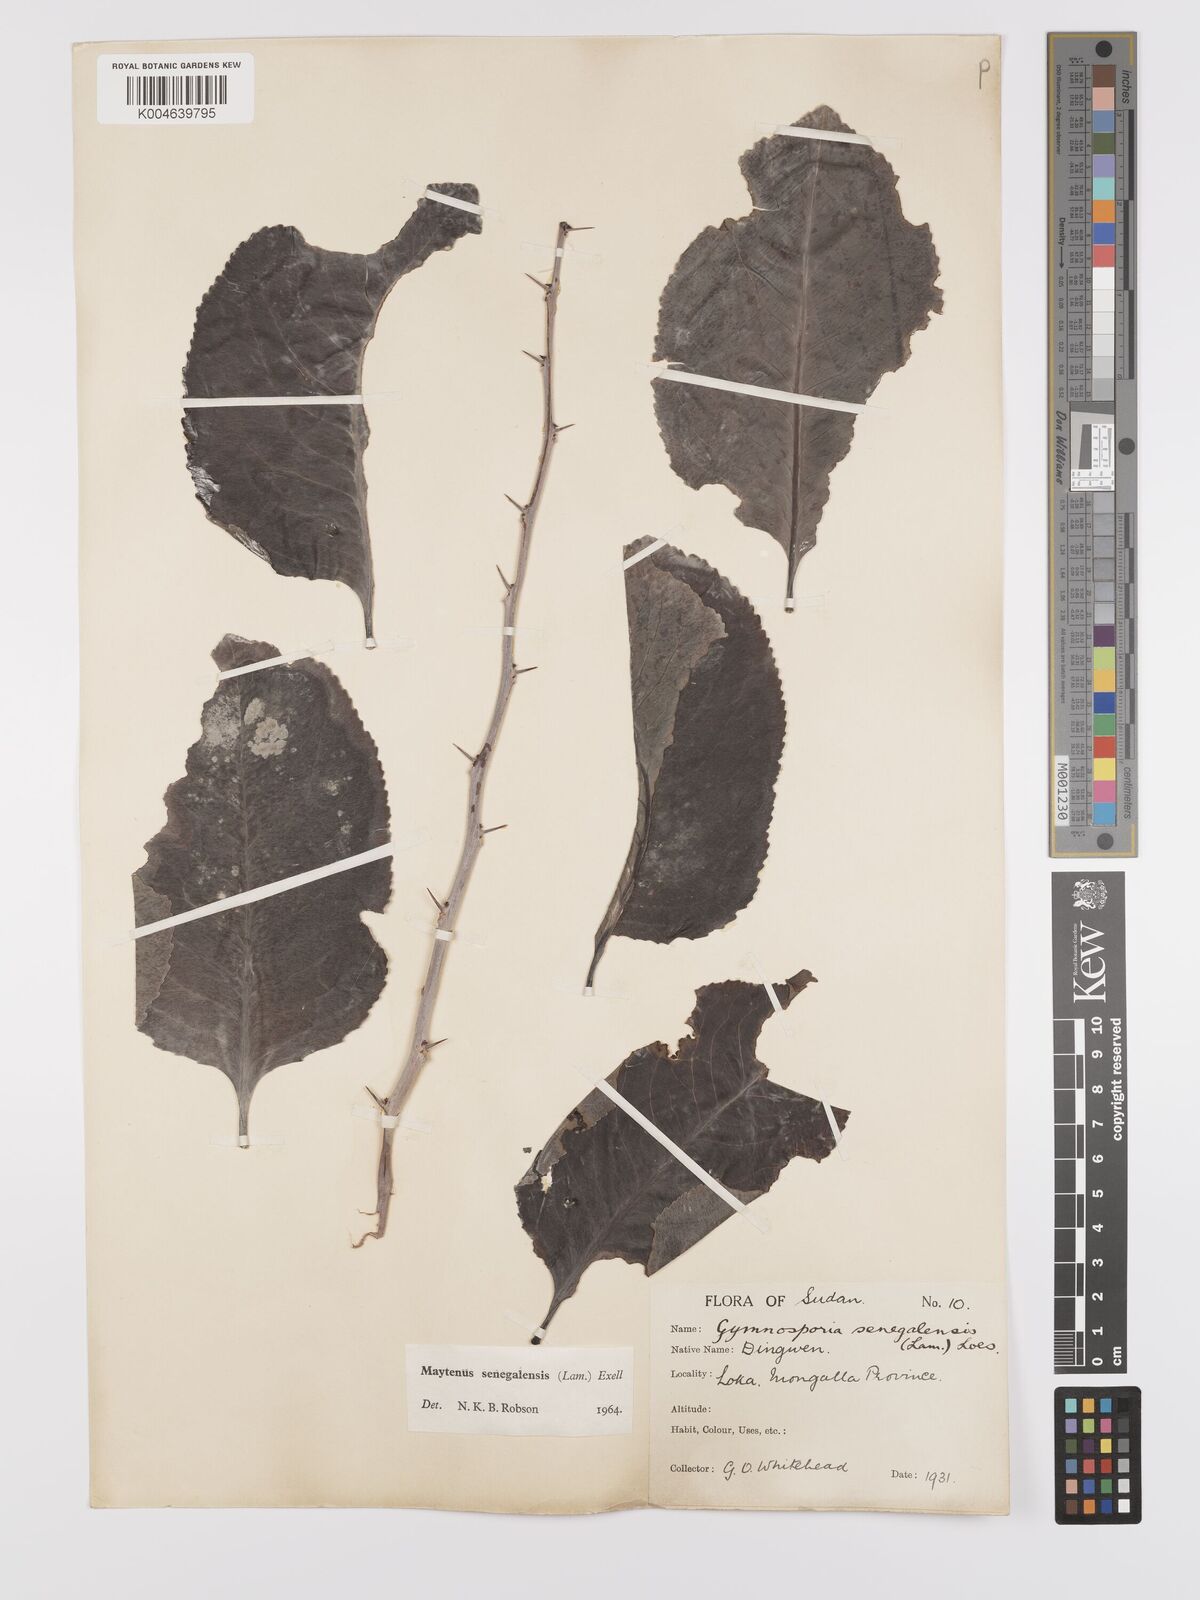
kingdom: Plantae
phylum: Tracheophyta
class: Magnoliopsida
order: Celastrales
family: Celastraceae
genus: Gymnosporia
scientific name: Gymnosporia senegalensis
